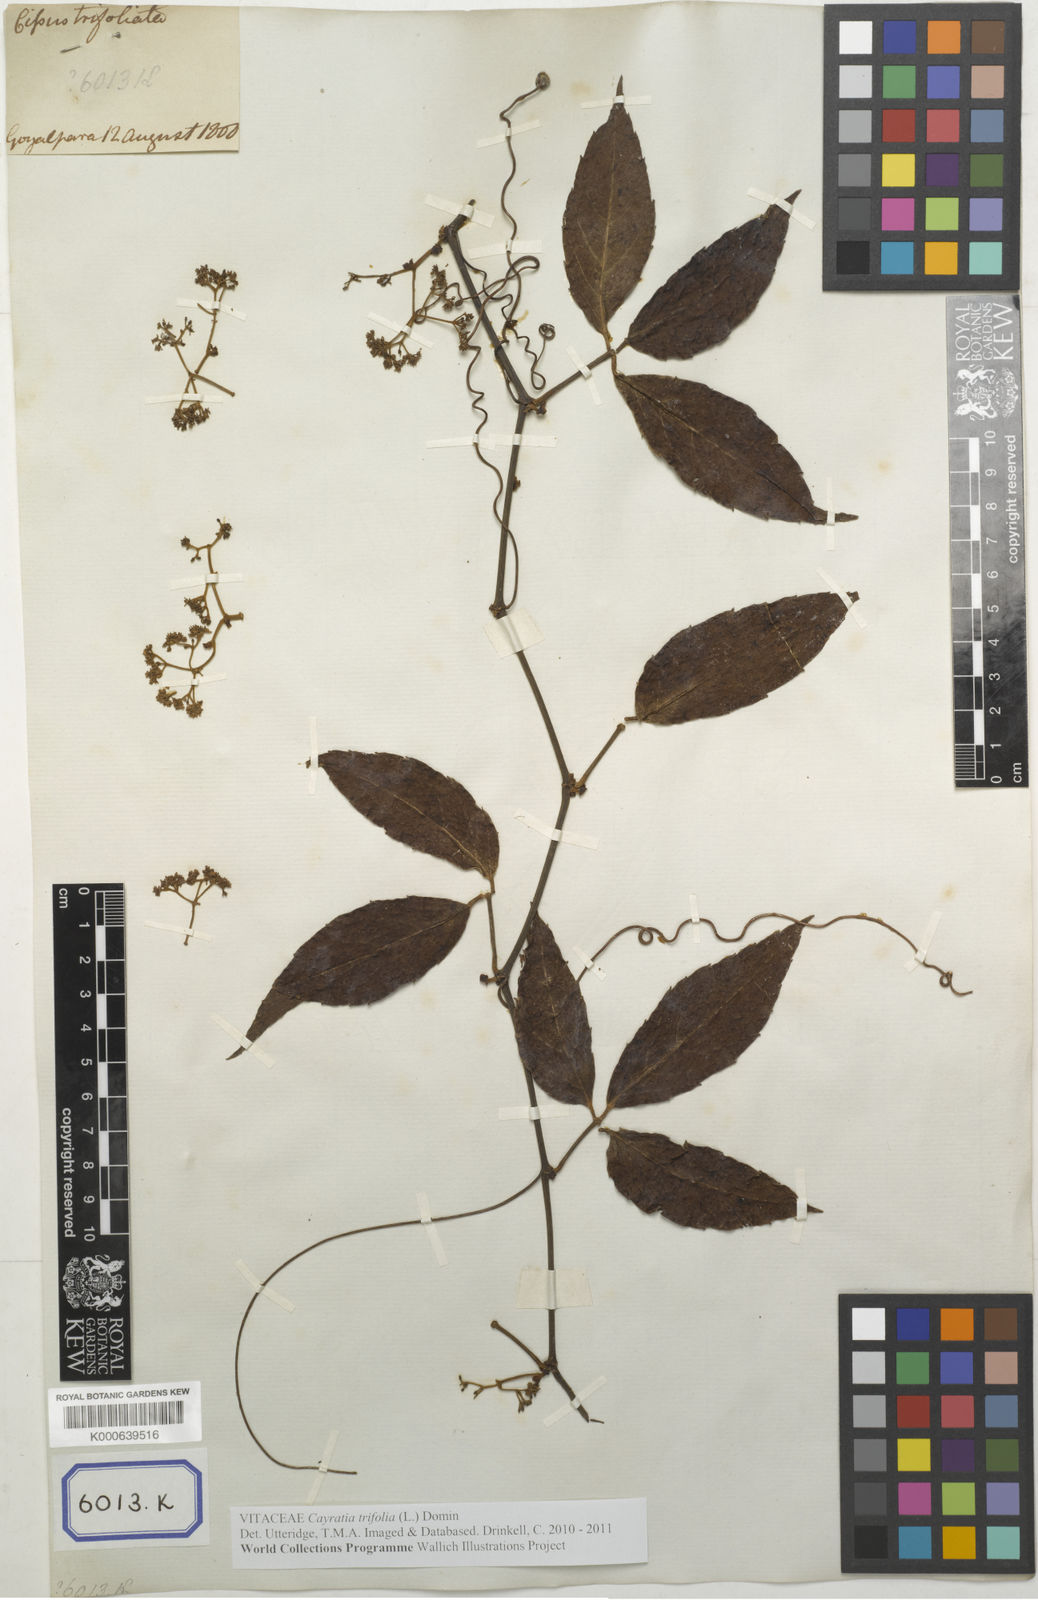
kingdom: Plantae
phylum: Tracheophyta
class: Magnoliopsida
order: Vitales
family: Vitaceae
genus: Cissus
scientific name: Cissus dubia
